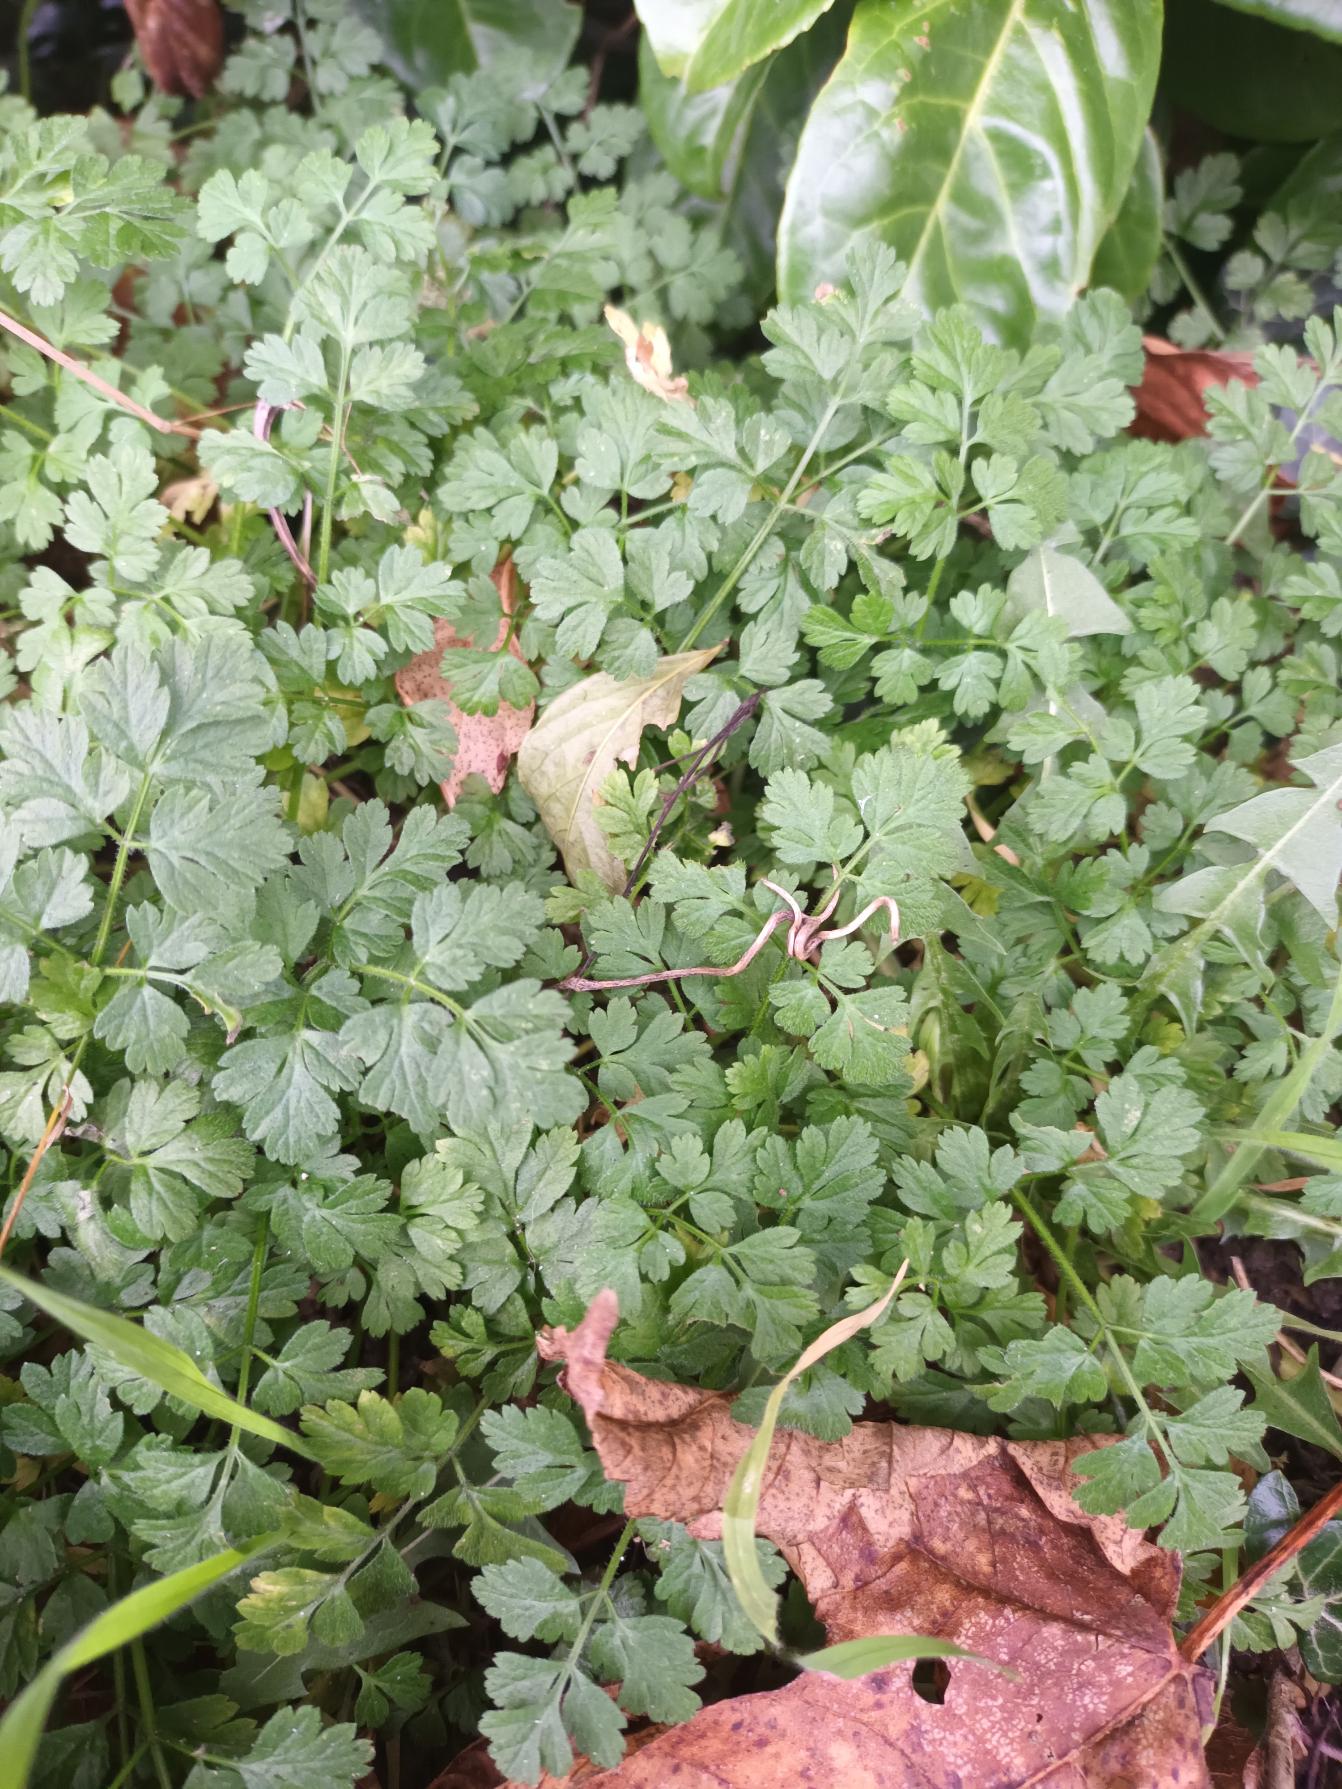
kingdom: Plantae
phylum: Tracheophyta
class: Magnoliopsida
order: Apiales
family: Apiaceae
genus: Chaerophyllum
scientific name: Chaerophyllum temulum
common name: Almindelig hulsvøb
